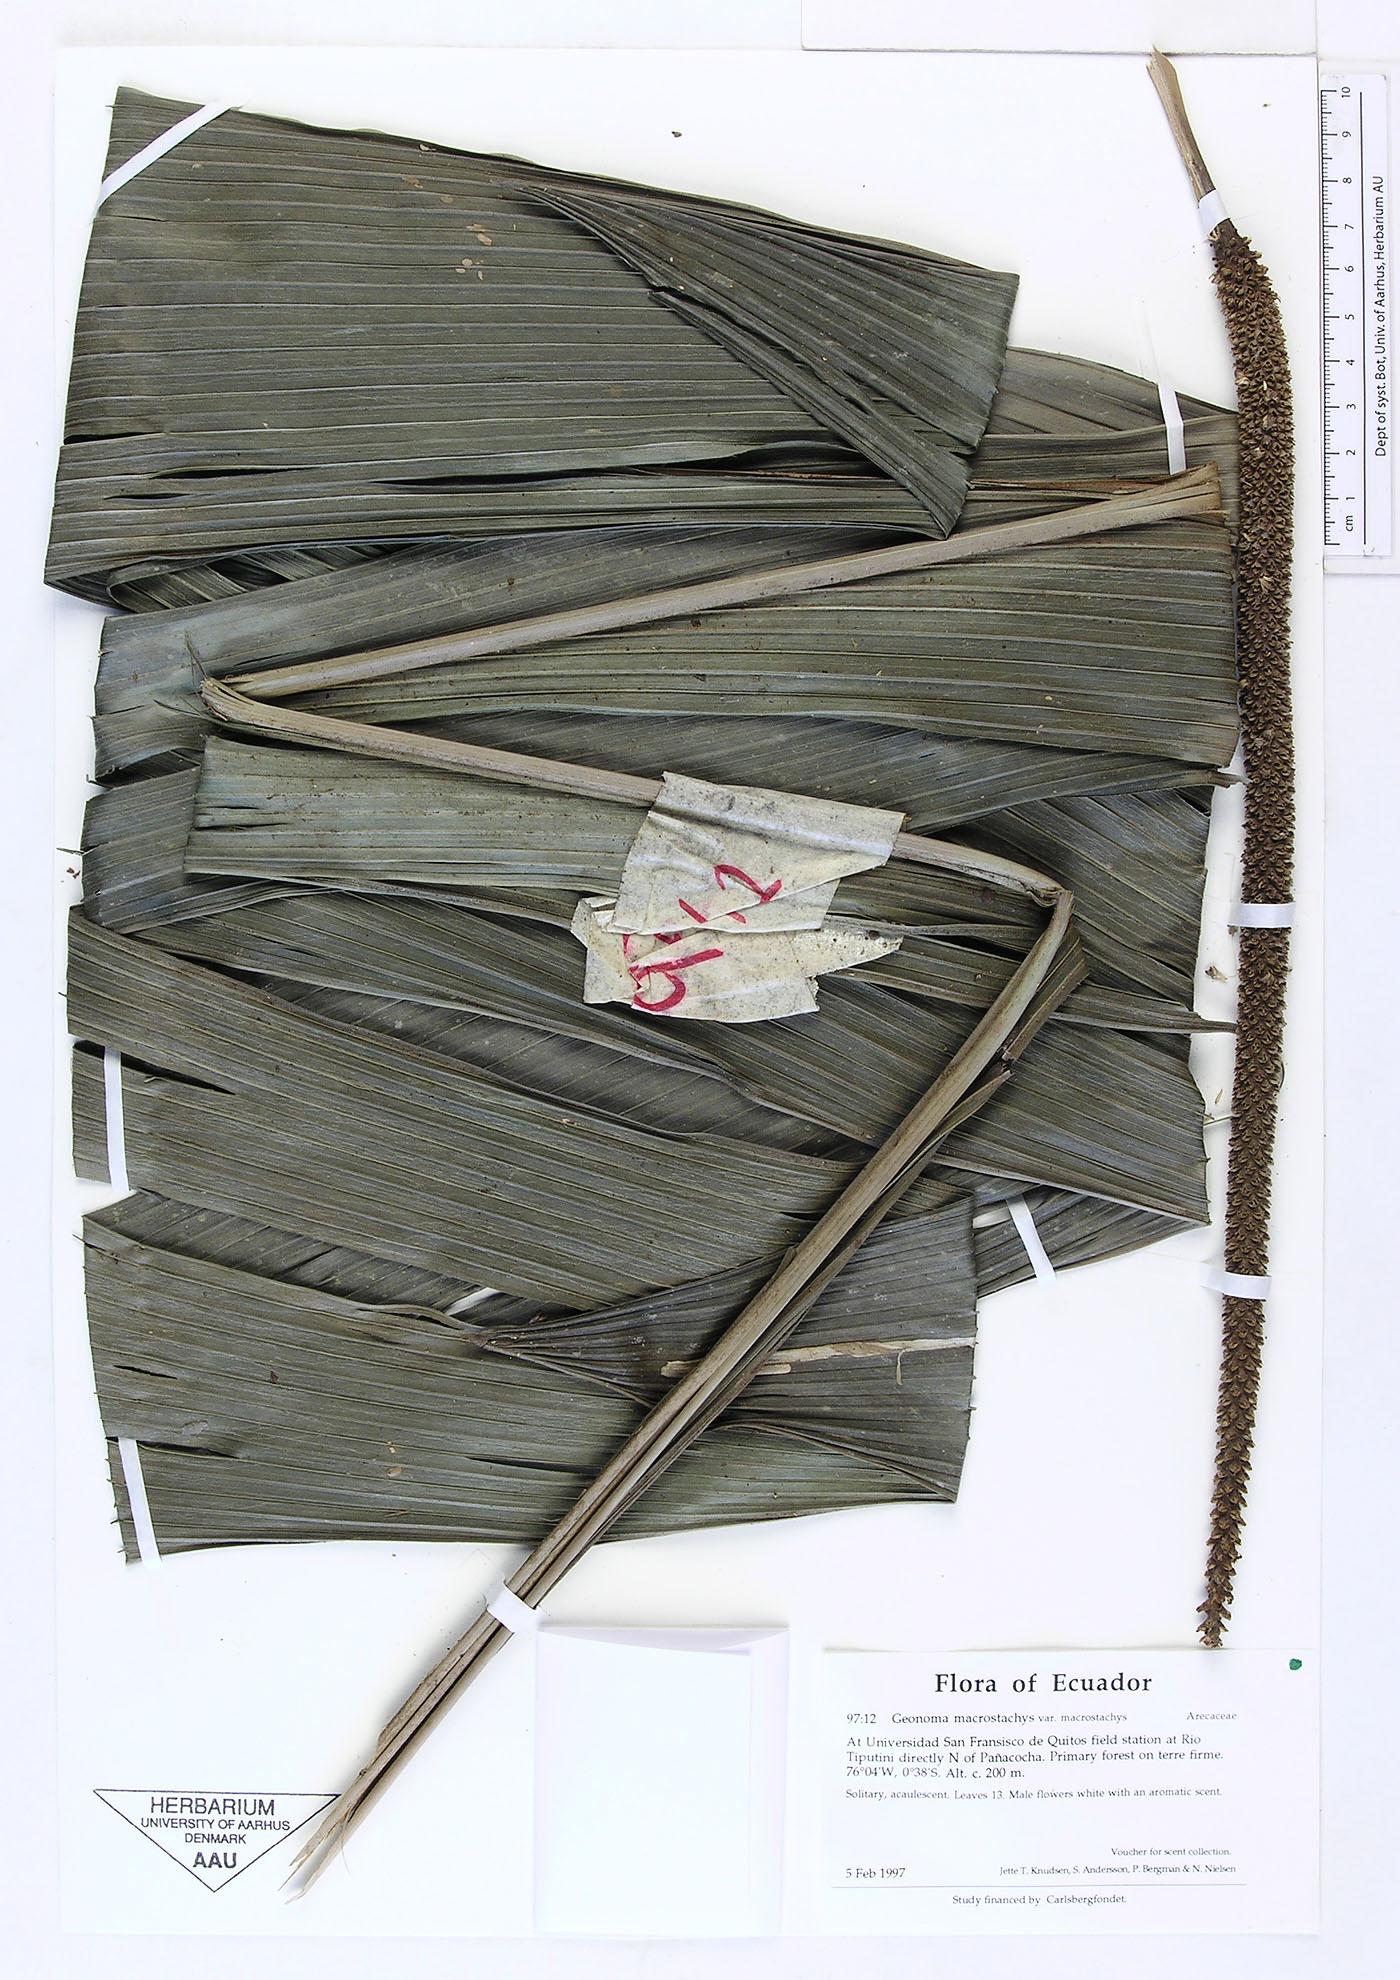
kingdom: Plantae
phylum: Tracheophyta
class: Liliopsida
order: Arecales
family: Arecaceae
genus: Geonoma
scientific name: Geonoma macrostachys
